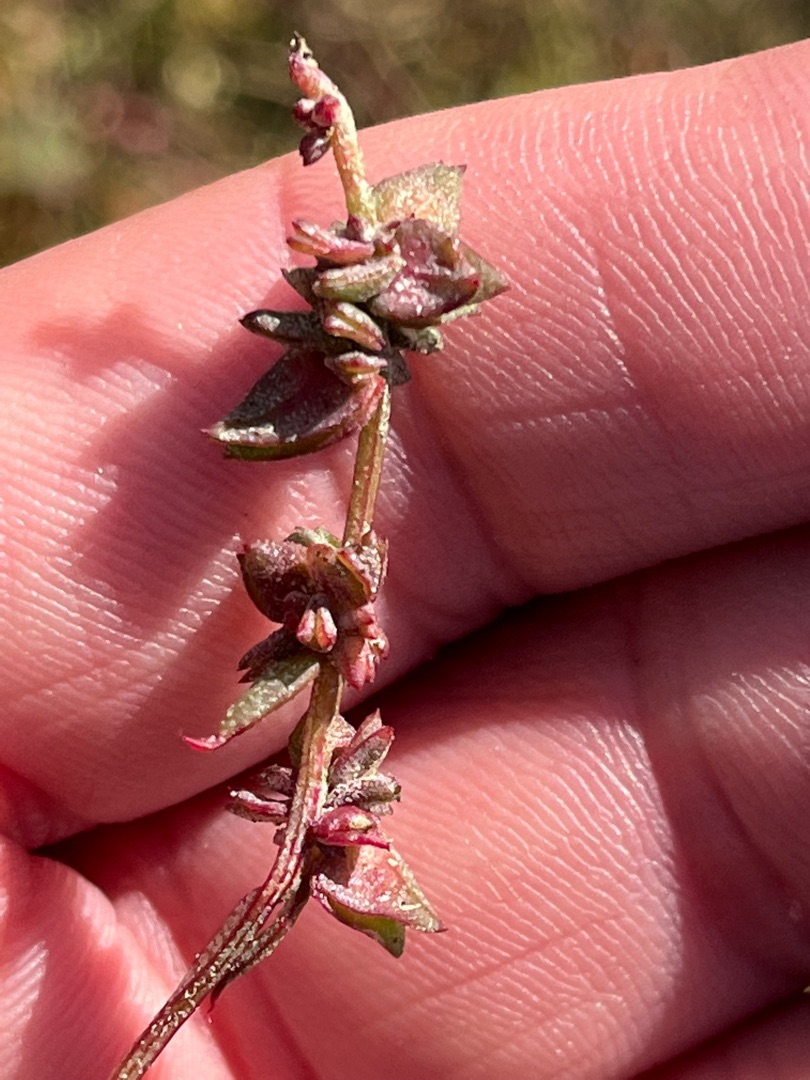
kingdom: Plantae
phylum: Tracheophyta
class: Magnoliopsida
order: Caryophyllales
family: Amaranthaceae
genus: Atriplex
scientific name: Atriplex prostrata
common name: Spyd-mælde
